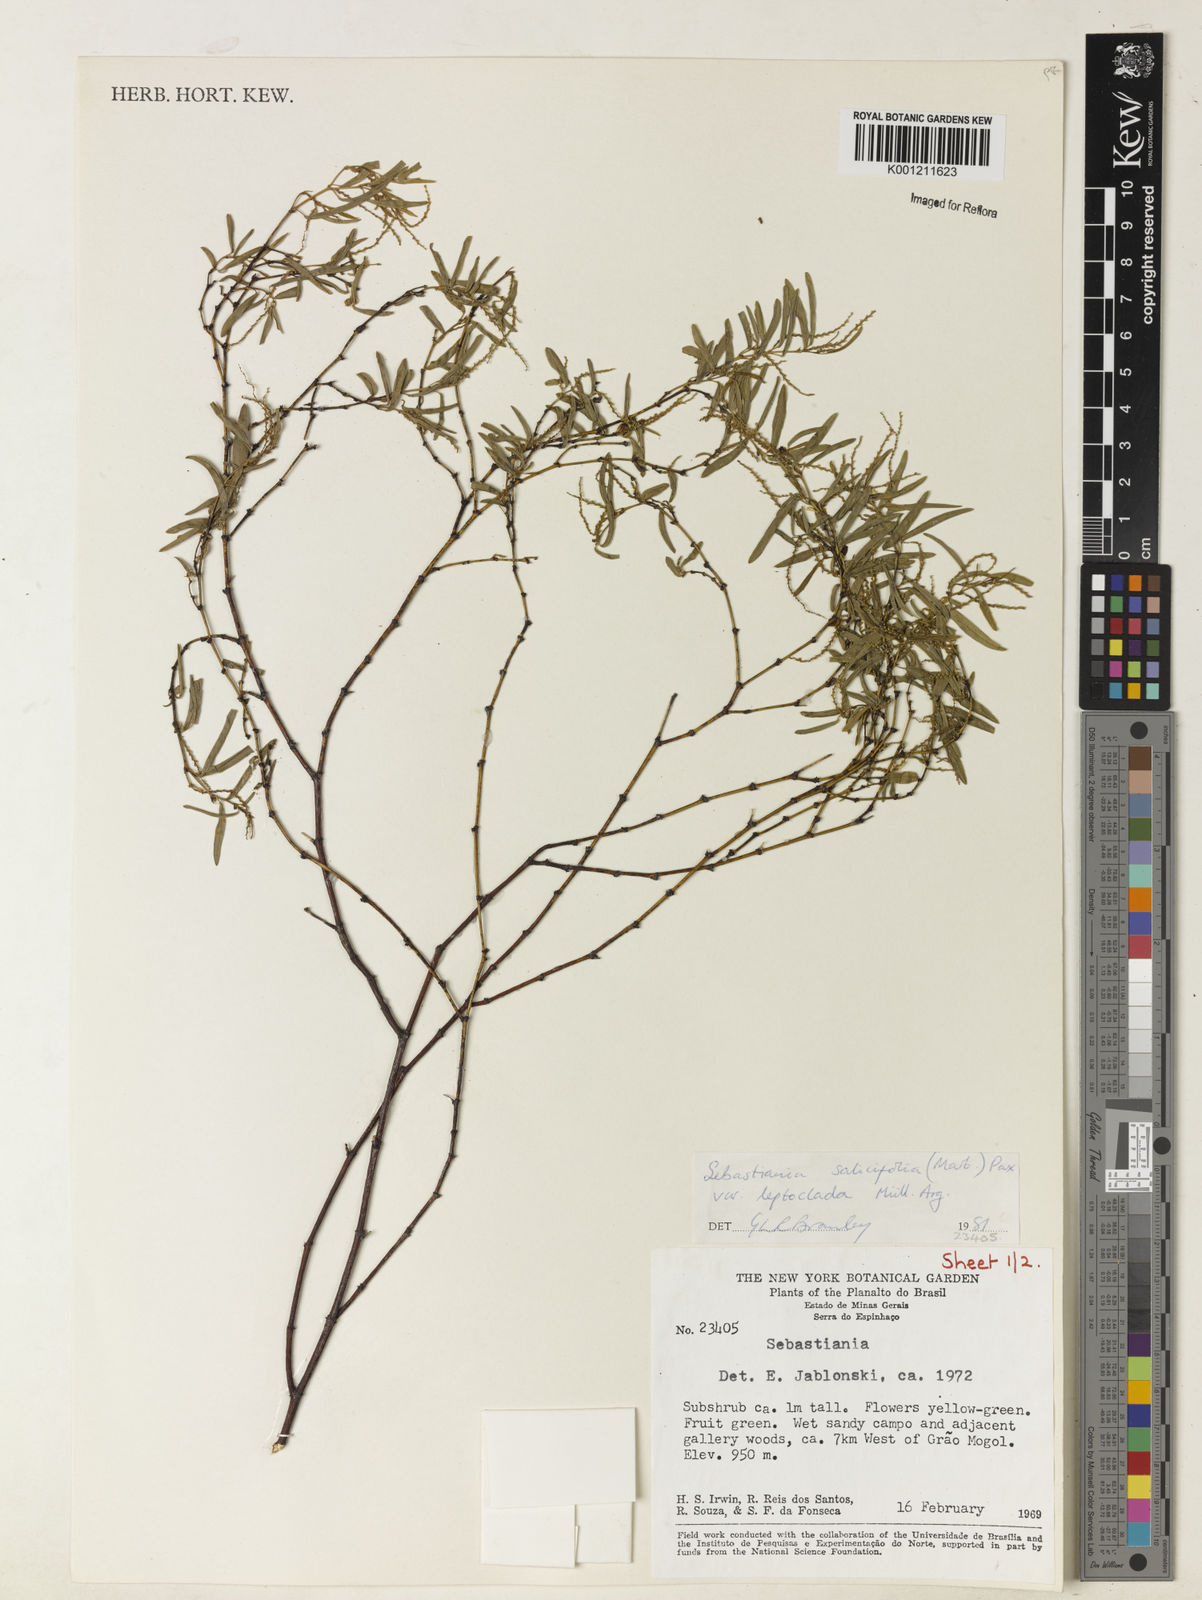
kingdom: Plantae
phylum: Tracheophyta
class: Magnoliopsida
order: Malpighiales
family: Euphorbiaceae
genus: Microstachys
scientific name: Microstachys
